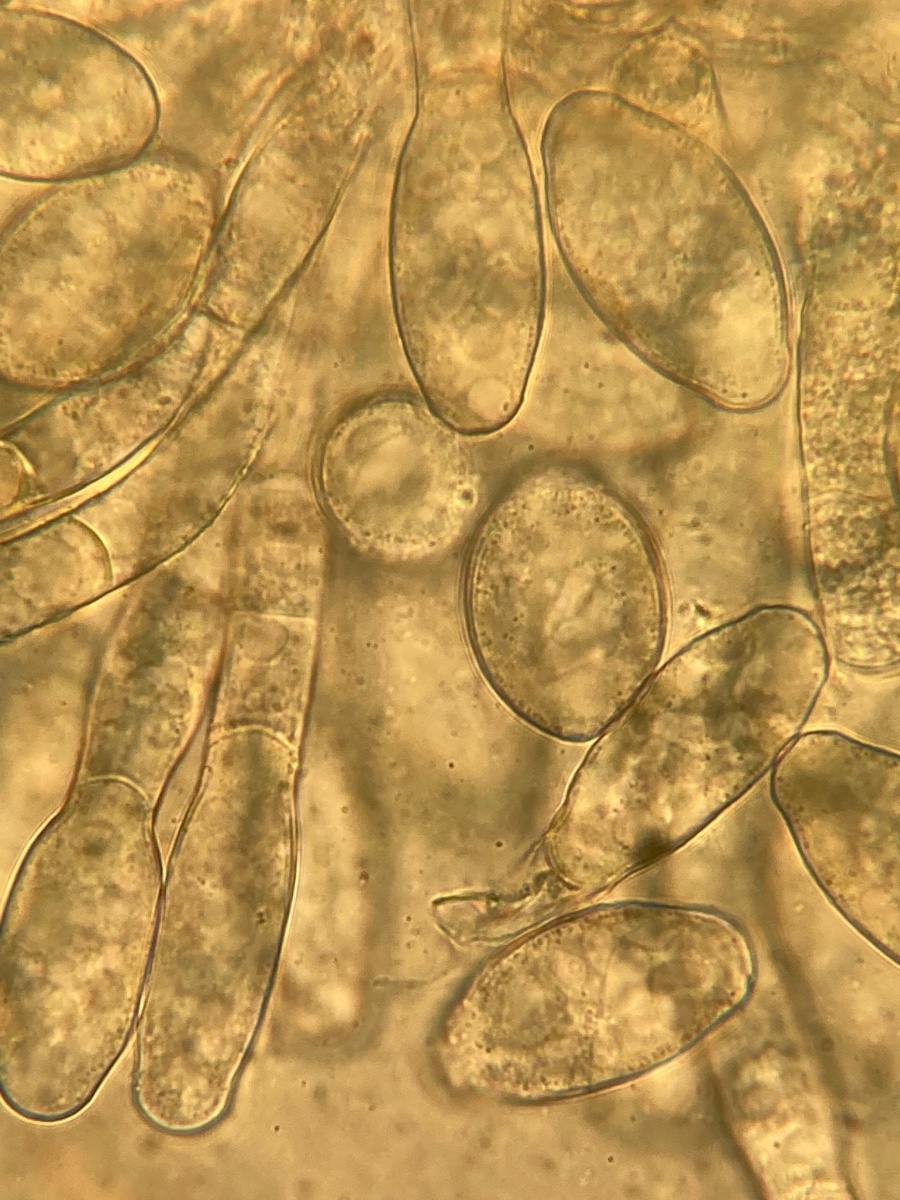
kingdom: Fungi
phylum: Ascomycota
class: Leotiomycetes
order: Helotiales
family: Erysiphaceae
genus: Neoerysiphe
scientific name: Neoerysiphe galeopsidis
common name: Mint mildew
